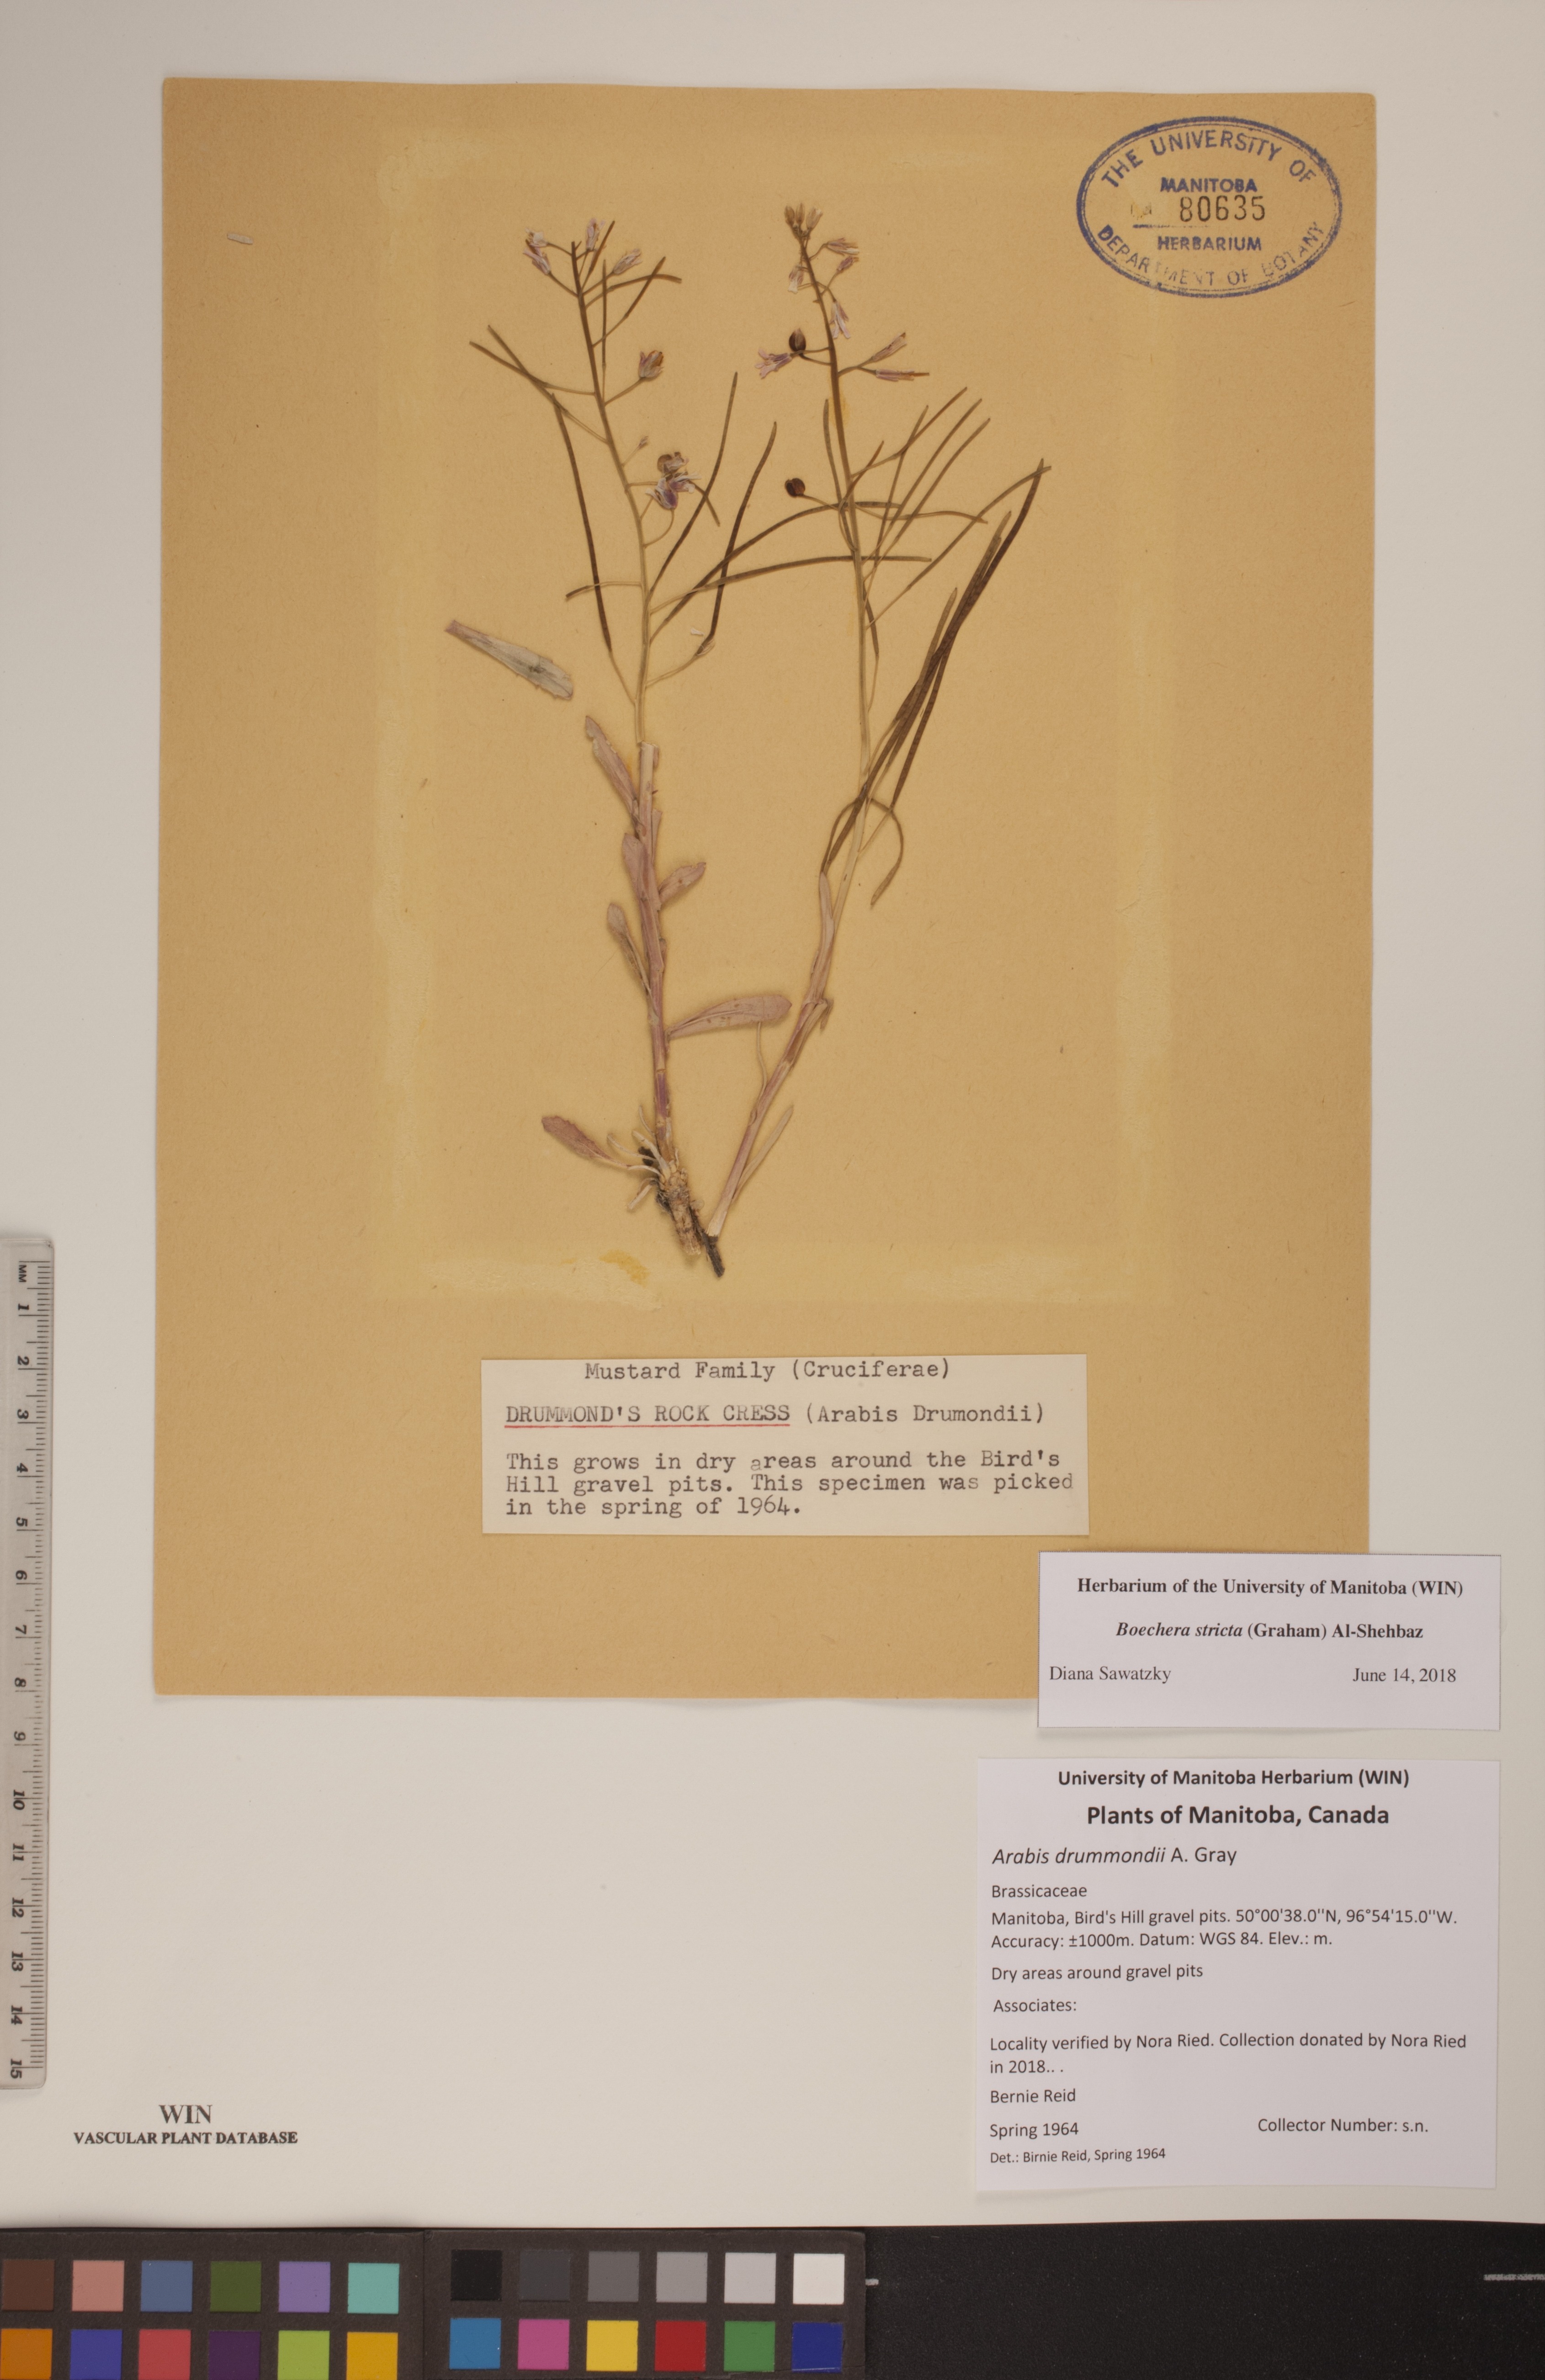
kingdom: Plantae
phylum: Tracheophyta
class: Magnoliopsida
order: Brassicales
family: Brassicaceae
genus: Boechera
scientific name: Boechera stricta
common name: Canadian rockcress
